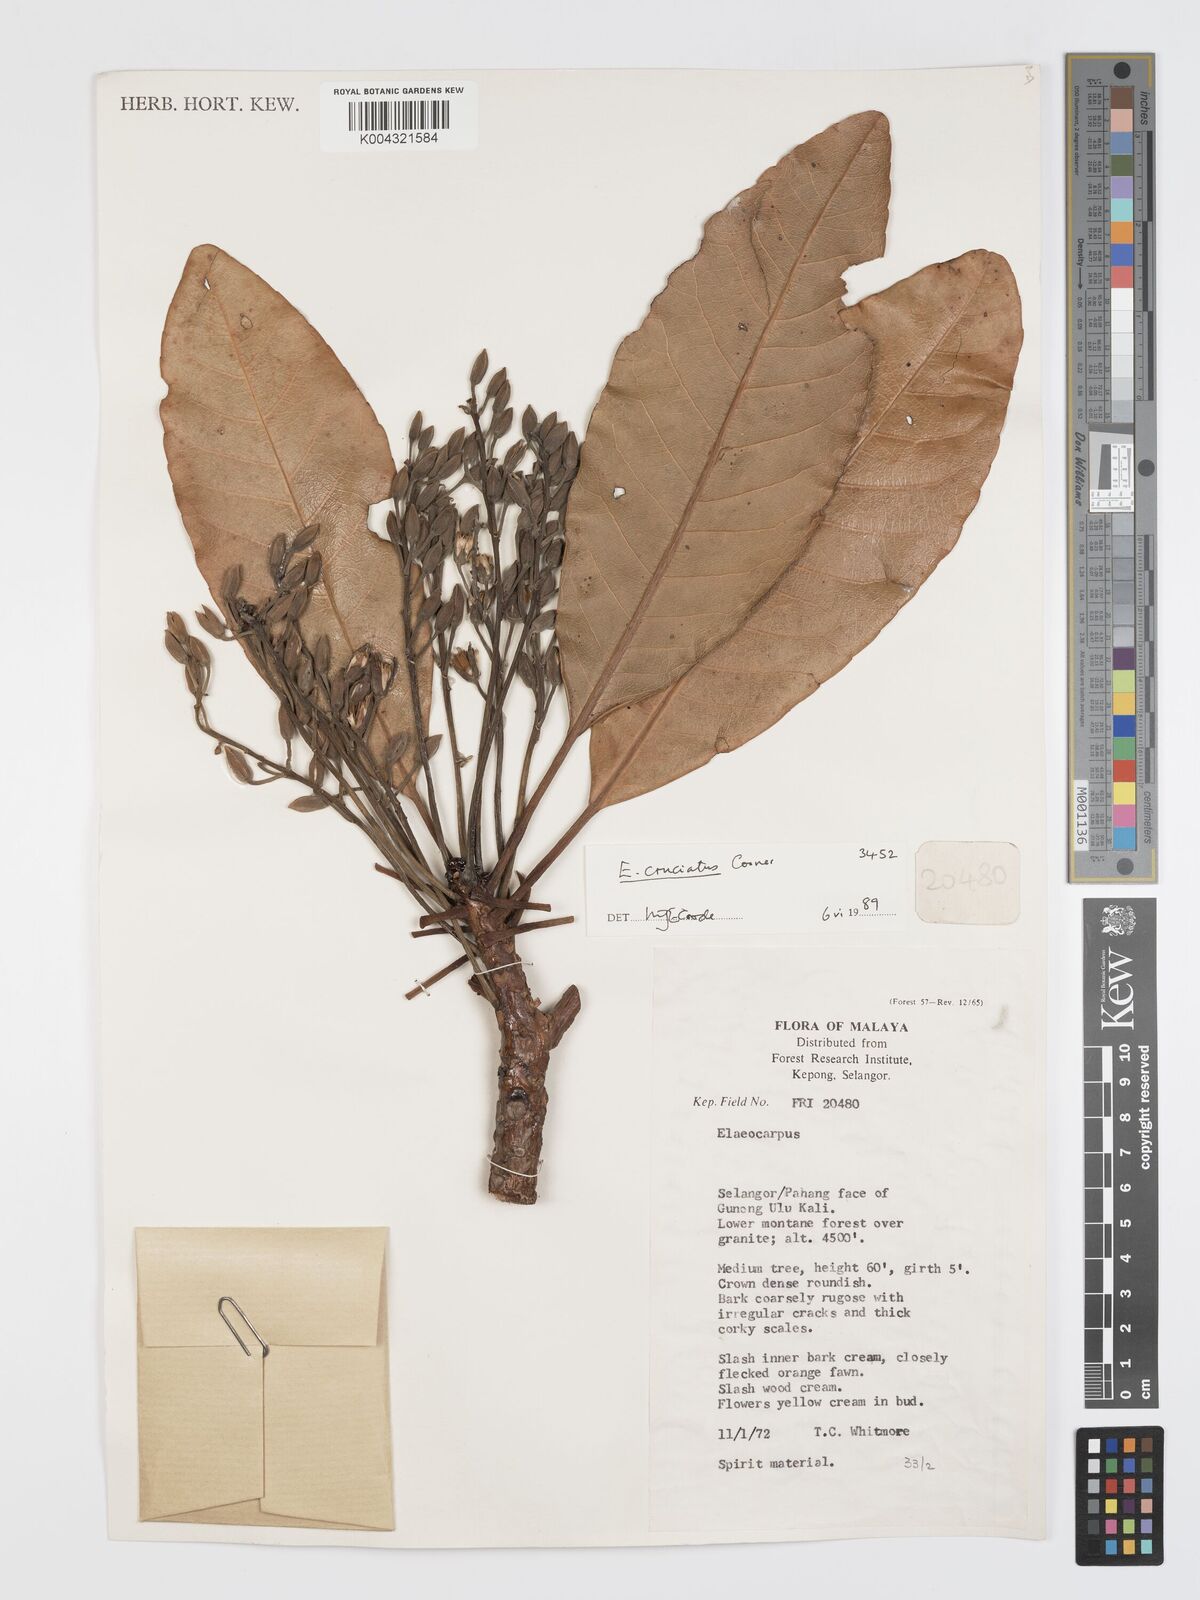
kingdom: Plantae
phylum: Tracheophyta
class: Magnoliopsida
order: Oxalidales
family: Elaeocarpaceae
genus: Elaeocarpus
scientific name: Elaeocarpus cruciatus
